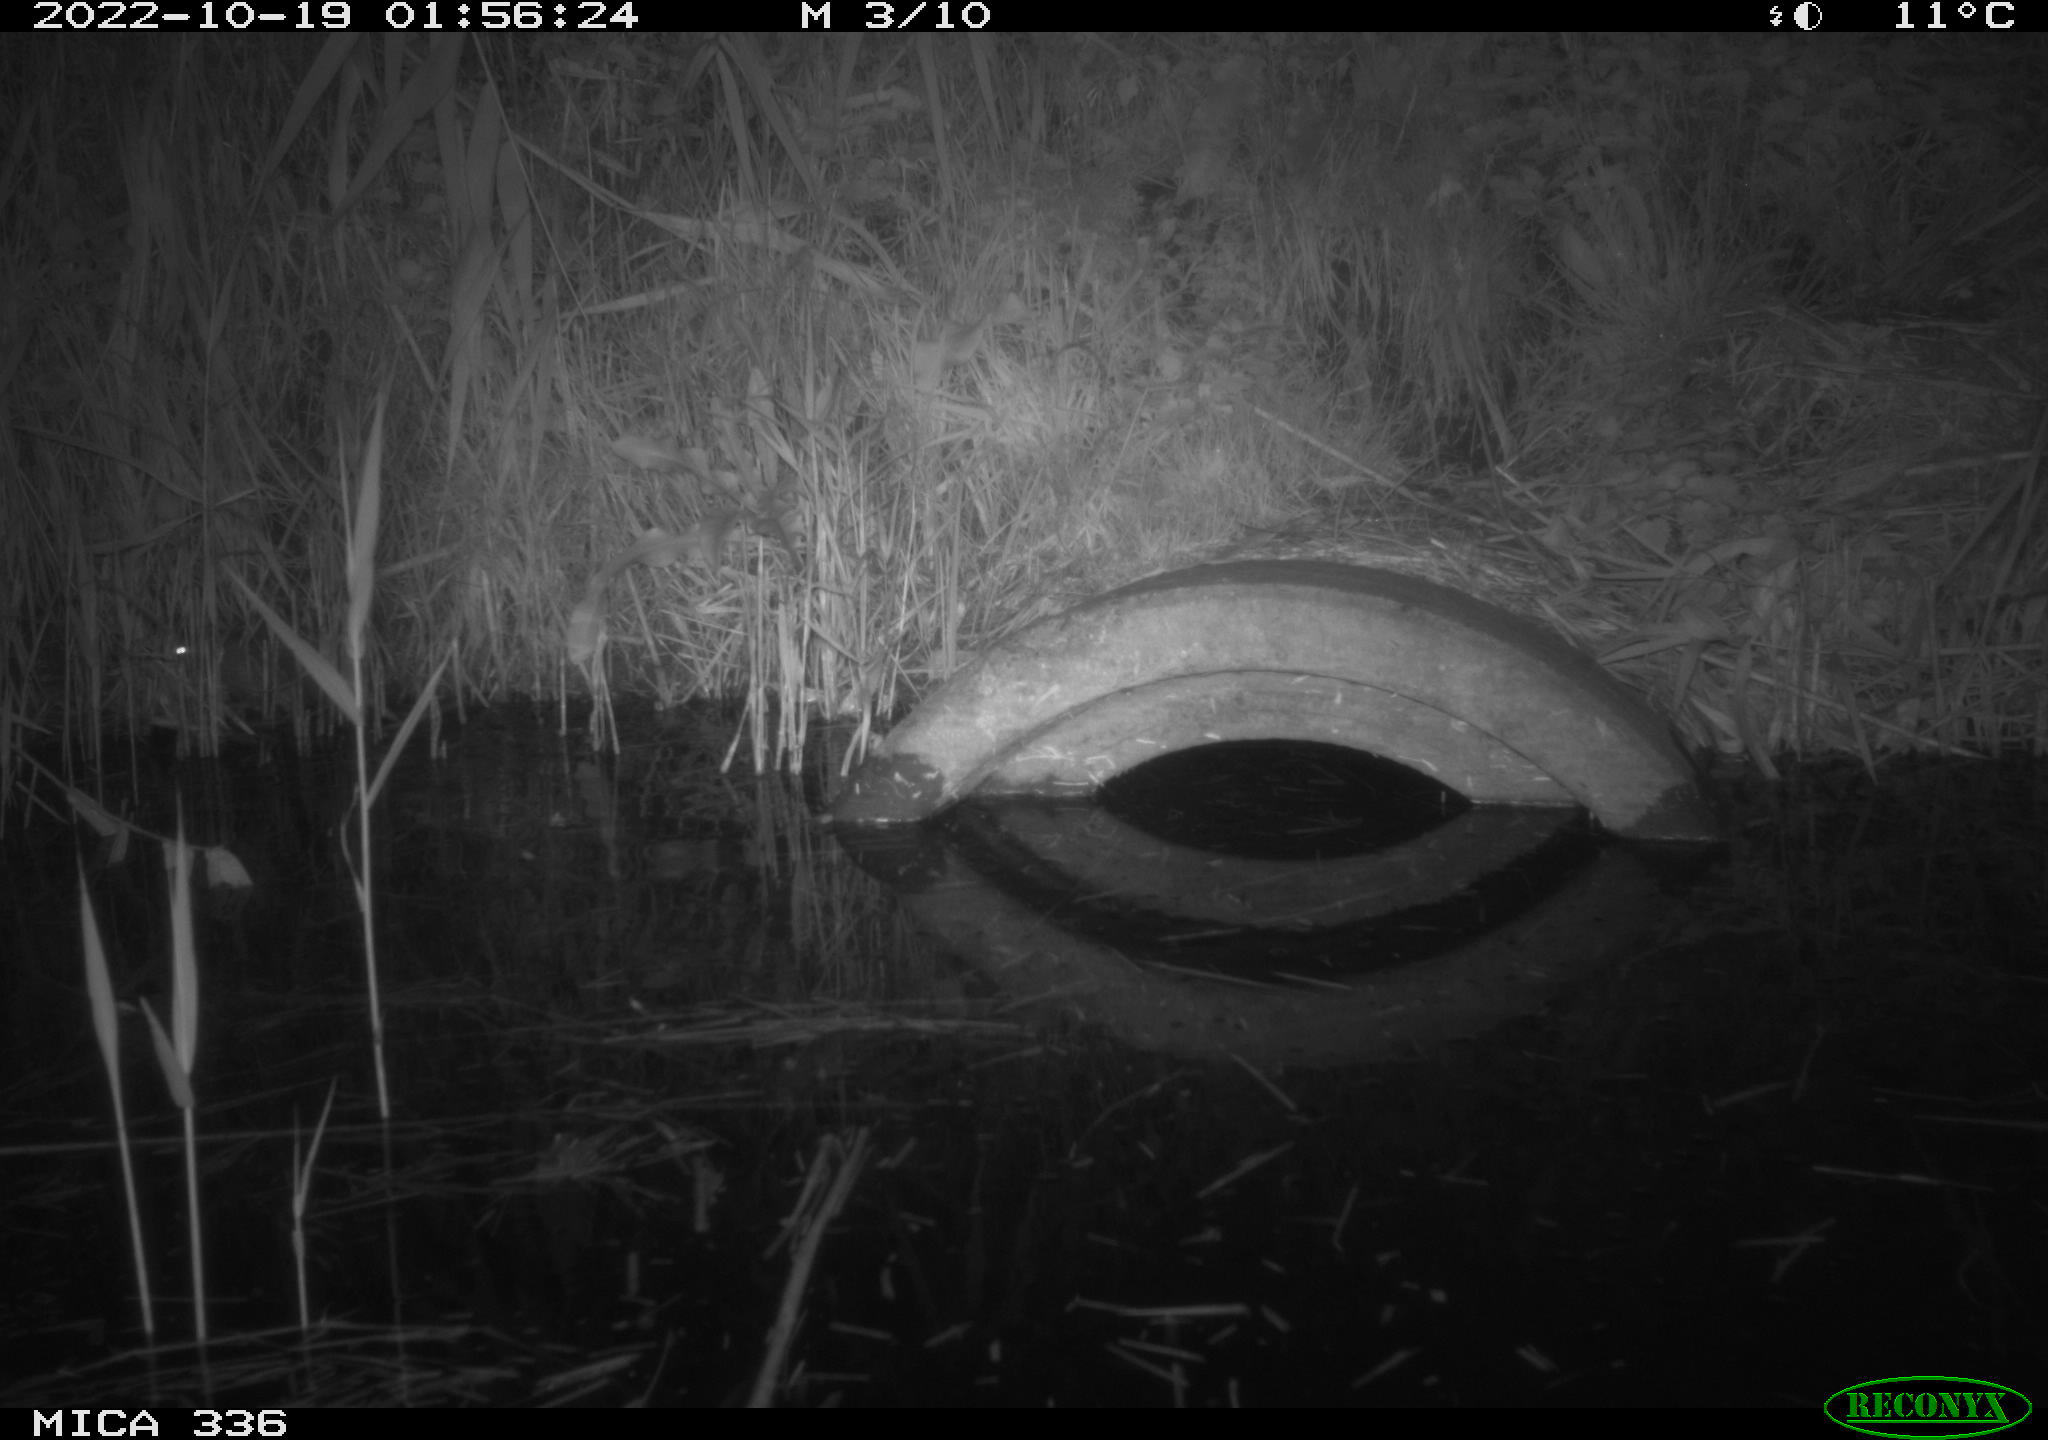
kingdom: Animalia
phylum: Chordata
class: Mammalia
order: Rodentia
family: Muridae
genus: Rattus
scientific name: Rattus norvegicus
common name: Brown rat
